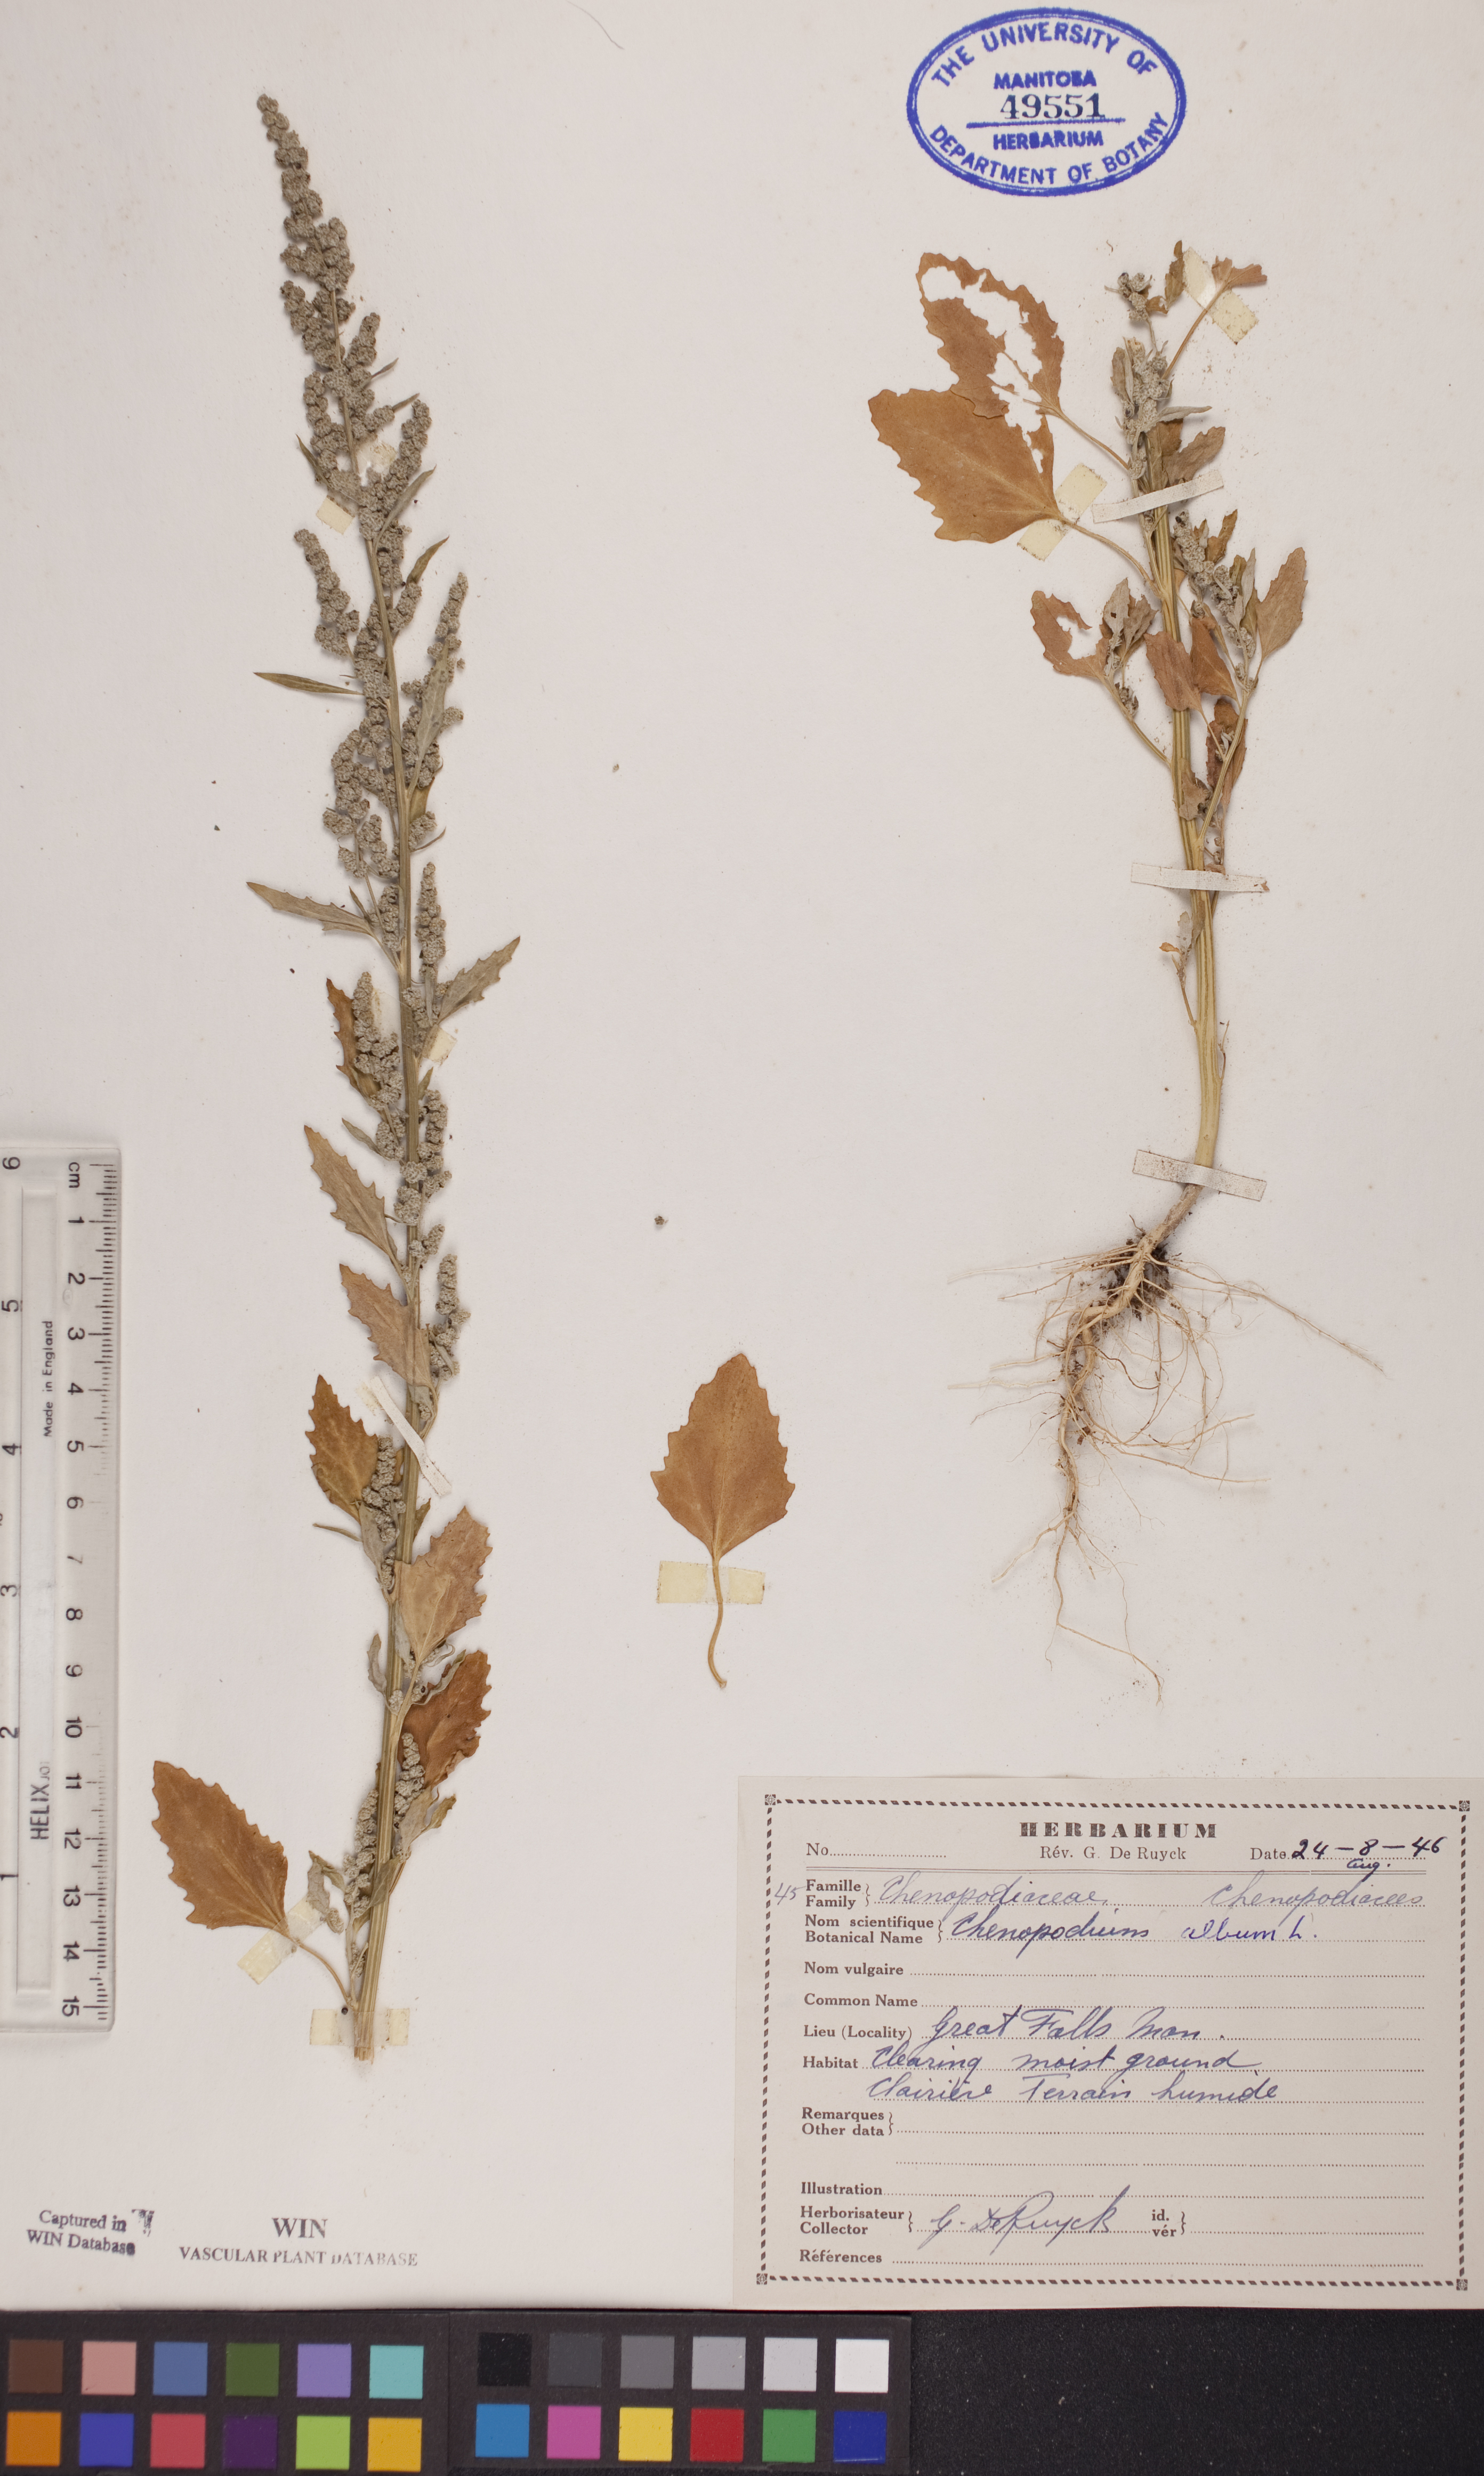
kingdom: Plantae
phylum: Tracheophyta
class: Magnoliopsida
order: Caryophyllales
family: Amaranthaceae
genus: Chenopodium
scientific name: Chenopodium album
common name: Fat-hen
